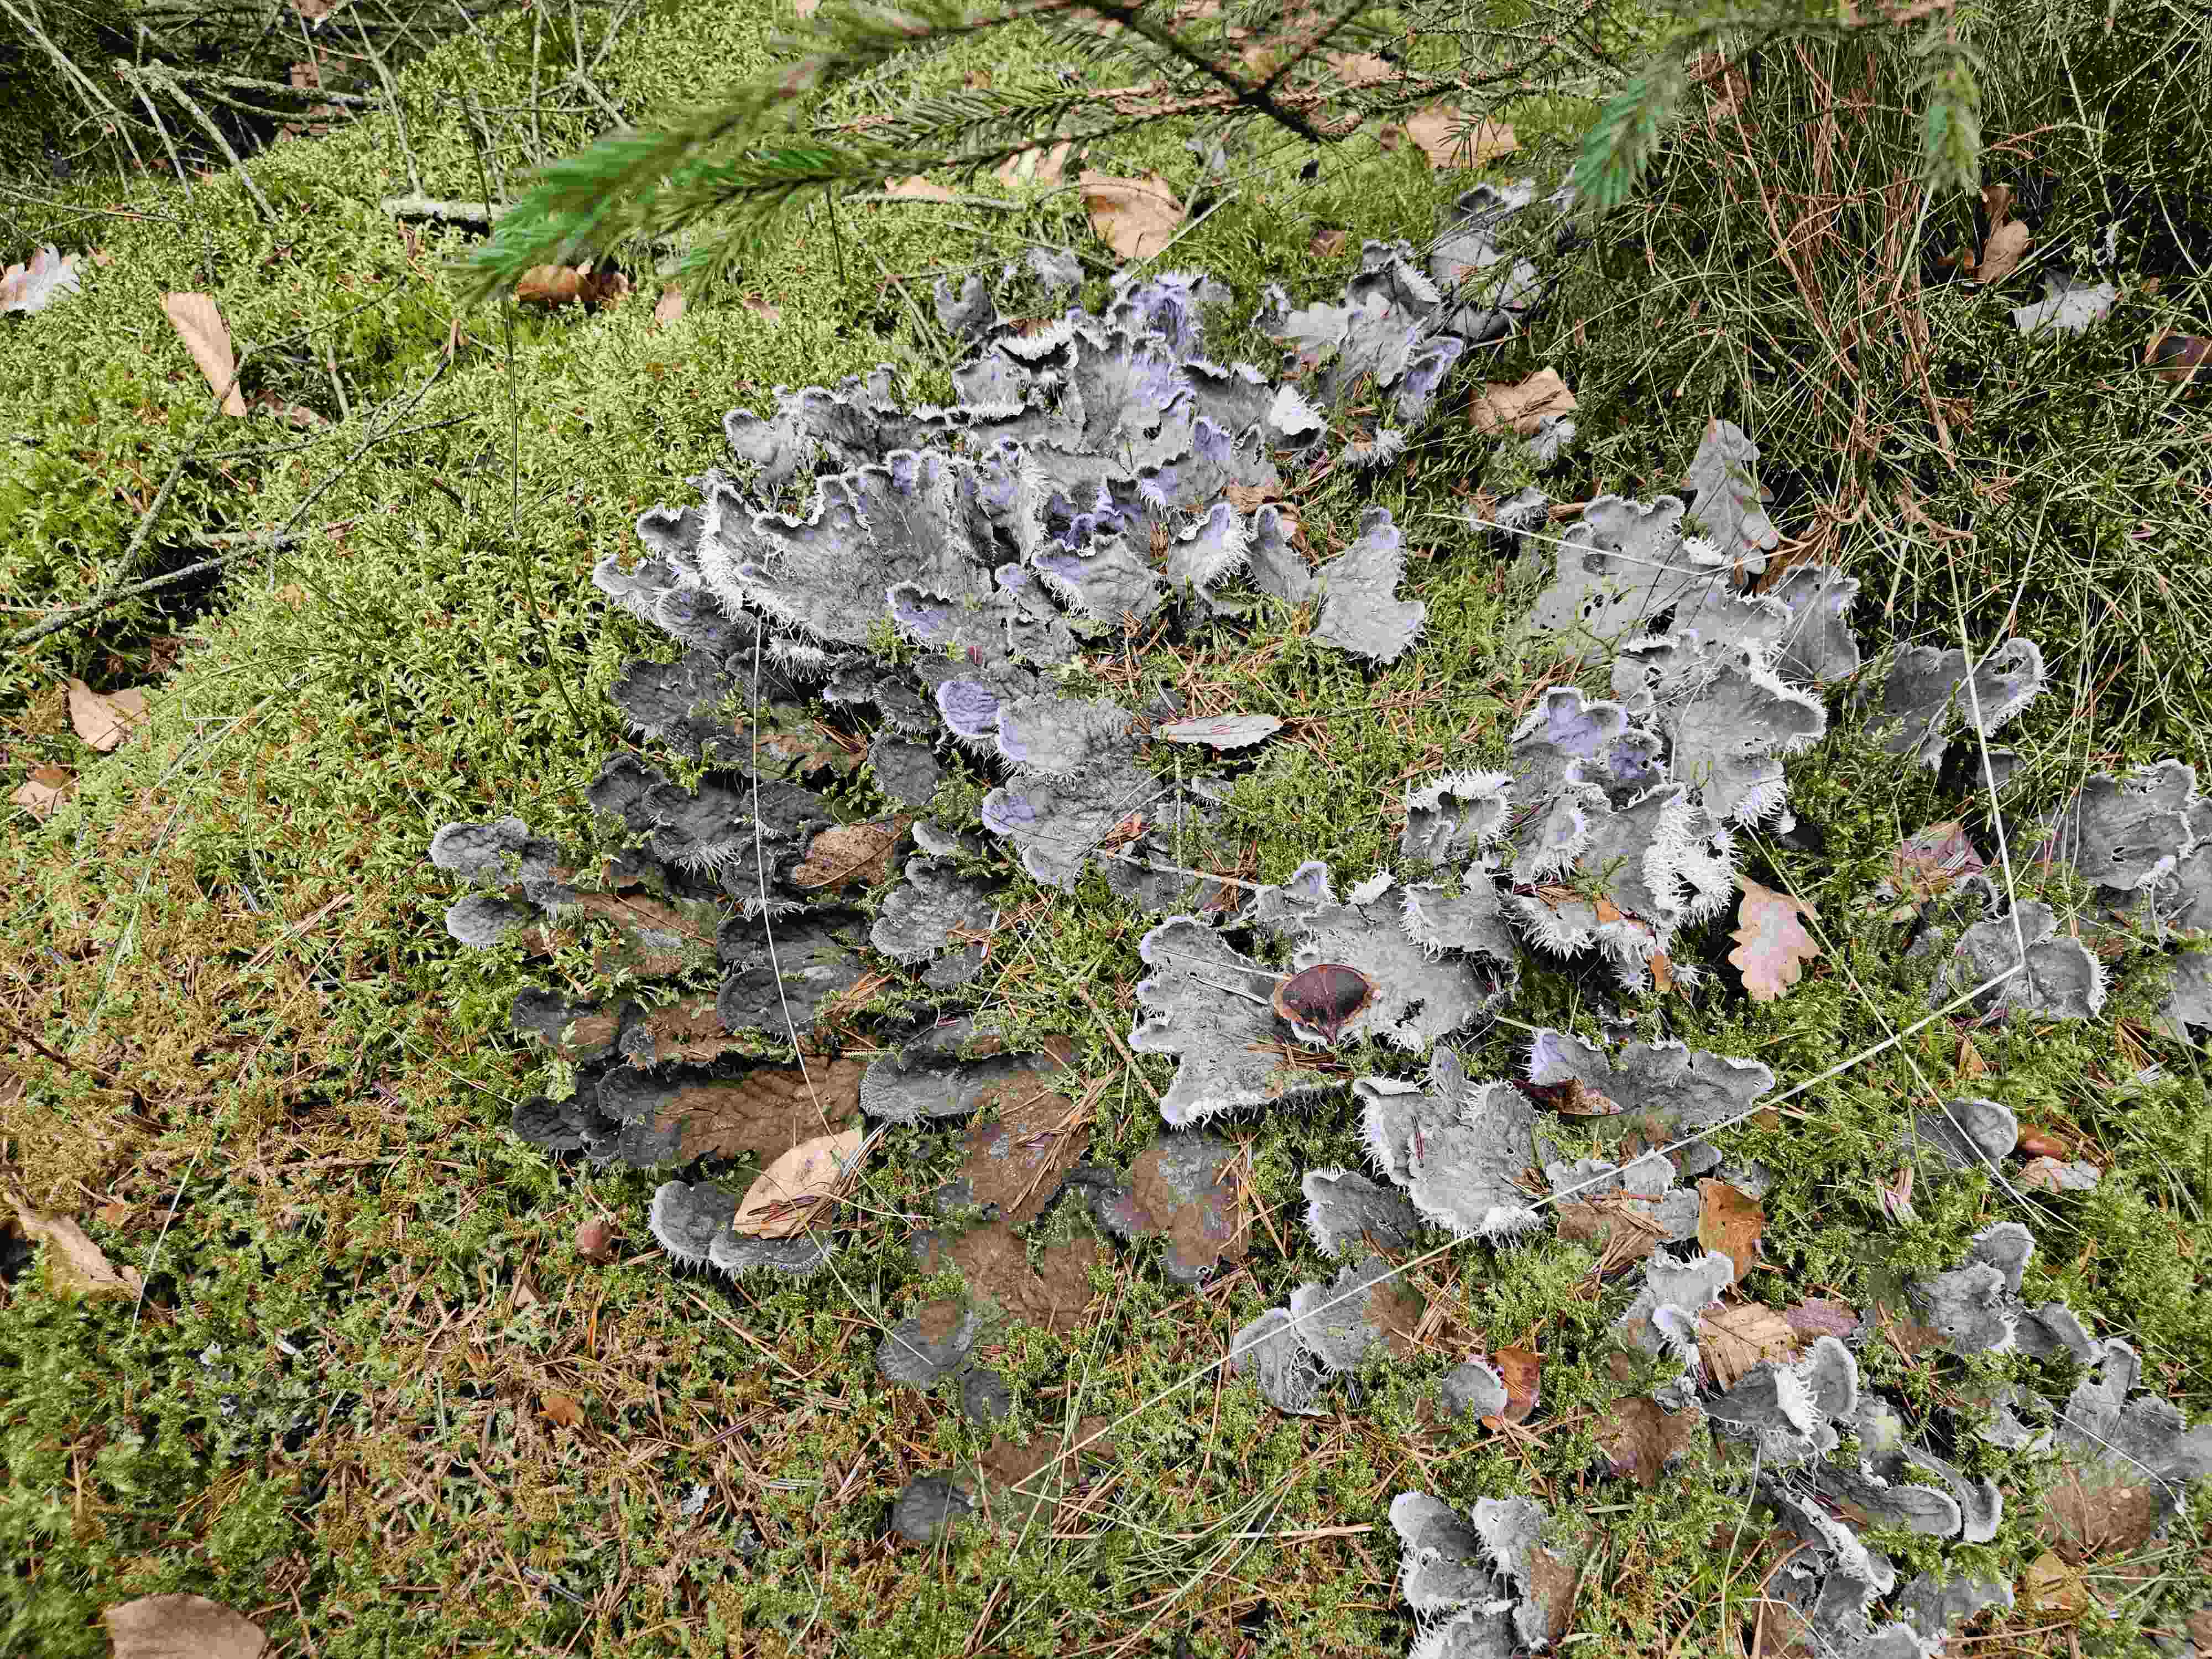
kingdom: Fungi
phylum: Ascomycota
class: Lecanoromycetes
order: Peltigerales
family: Peltigeraceae
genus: Peltigera
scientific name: Peltigera membranacea
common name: tynd skjoldlav
